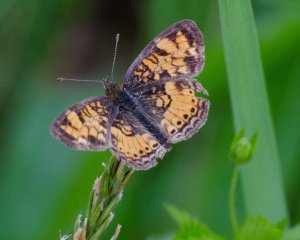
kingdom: Animalia
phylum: Arthropoda
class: Insecta
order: Lepidoptera
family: Nymphalidae
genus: Phyciodes
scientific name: Phyciodes tharos
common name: Pearl Crescent
